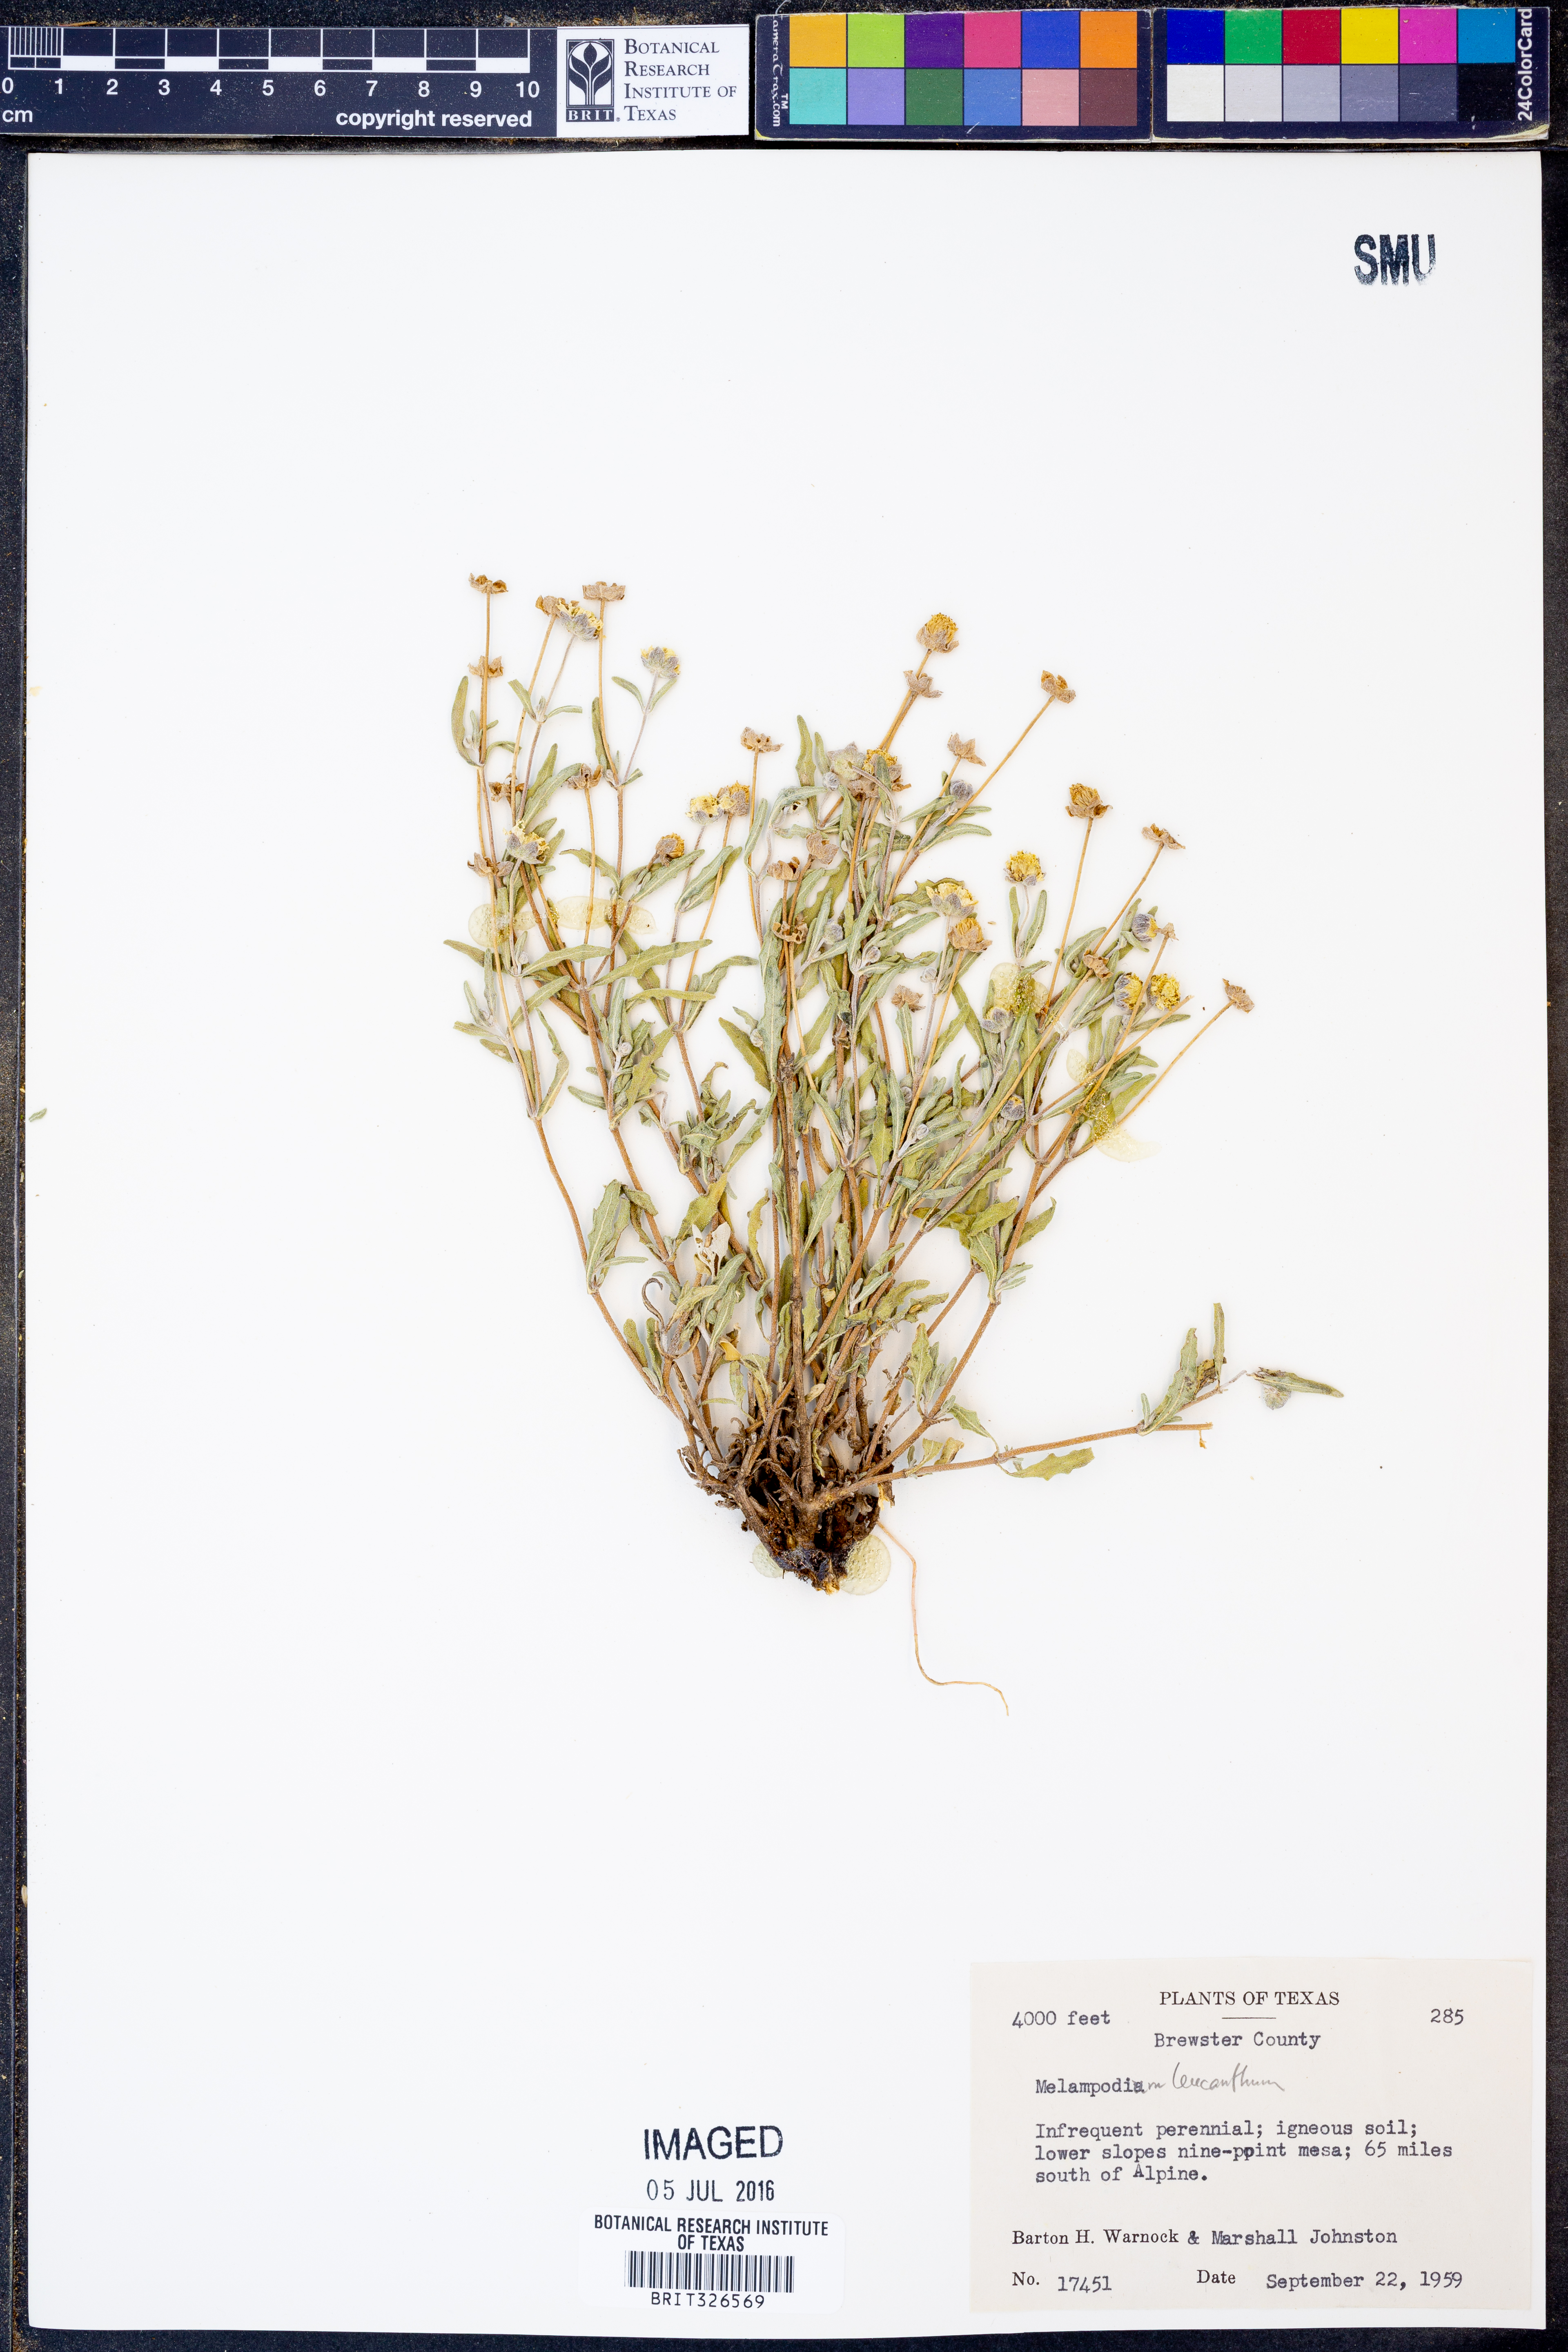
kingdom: Plantae
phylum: Tracheophyta
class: Magnoliopsida
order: Asterales
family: Asteraceae
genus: Melampodium
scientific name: Melampodium leucanthum
